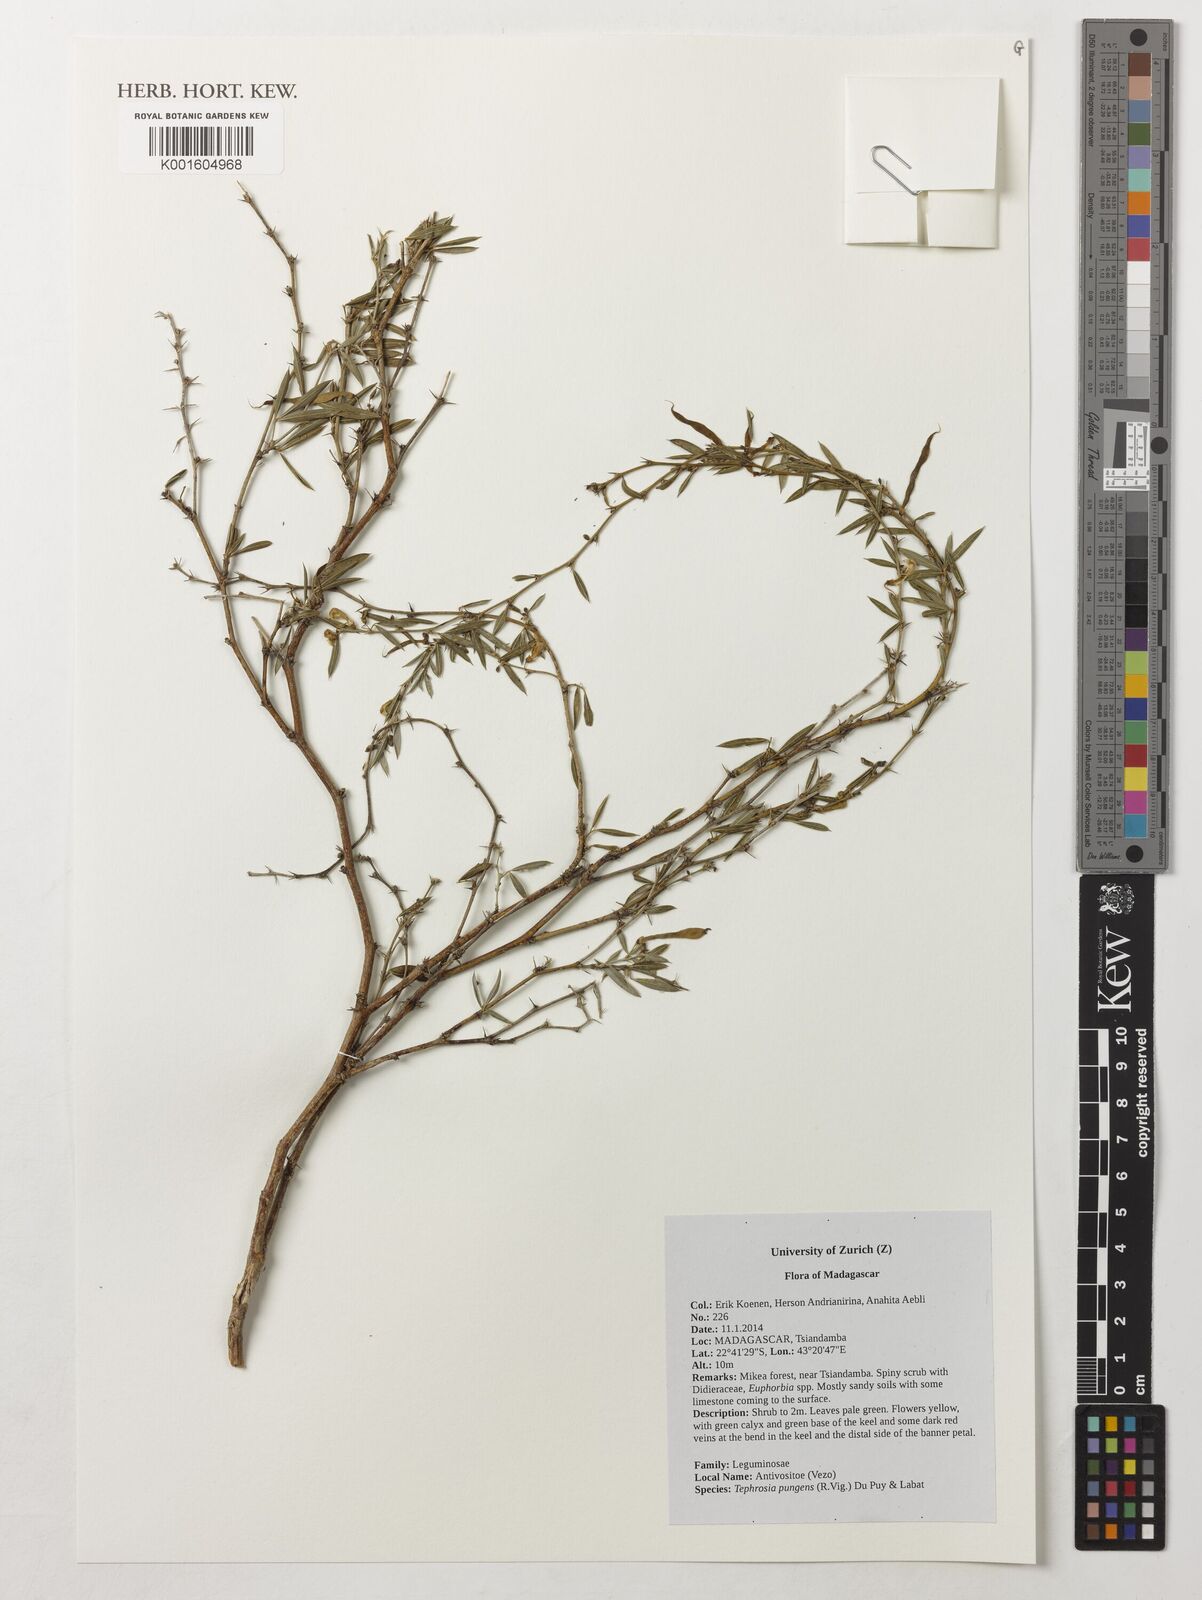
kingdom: Plantae
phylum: Tracheophyta
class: Magnoliopsida
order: Fabales
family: Fabaceae
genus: Tephrosia
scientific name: Tephrosia pungens
